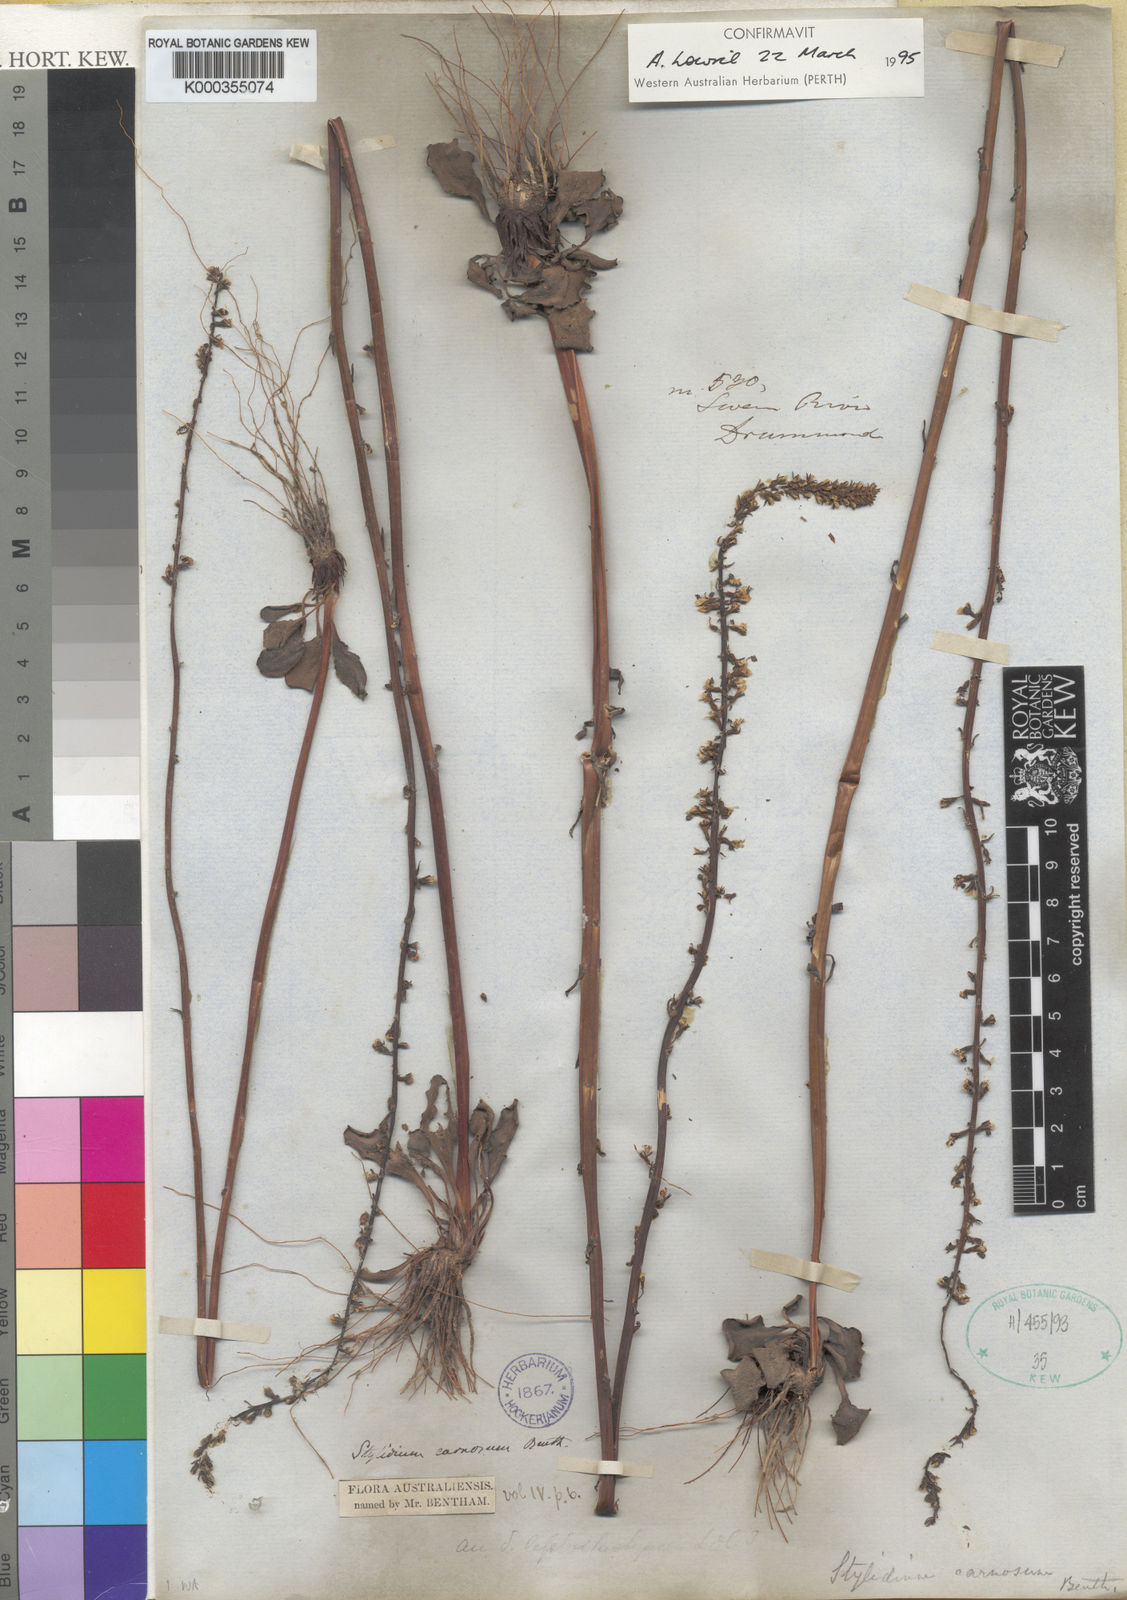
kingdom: Plantae
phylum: Tracheophyta
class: Magnoliopsida
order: Asterales
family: Stylidiaceae
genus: Stylidium
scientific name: Stylidium carnosum
